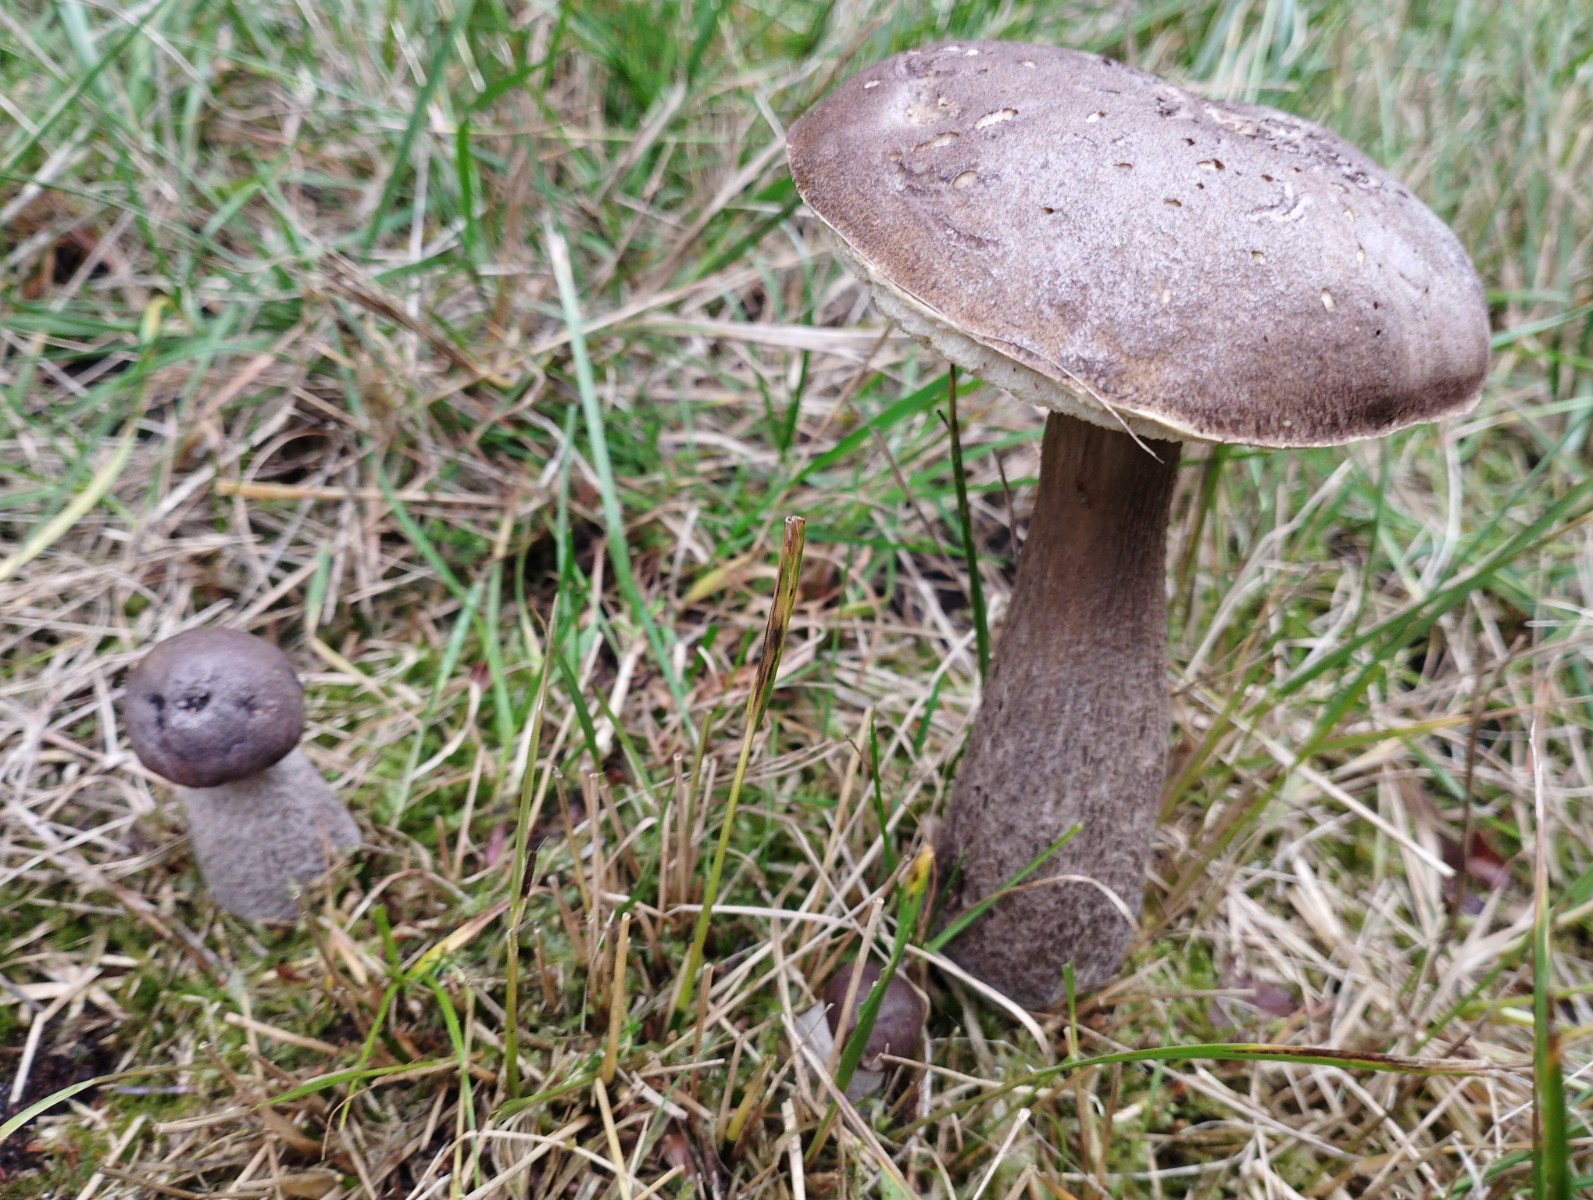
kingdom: Fungi
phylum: Basidiomycota
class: Agaricomycetes
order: Boletales
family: Boletaceae
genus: Leccinum
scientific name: Leccinum melaneum
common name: mørk skælrørhat
